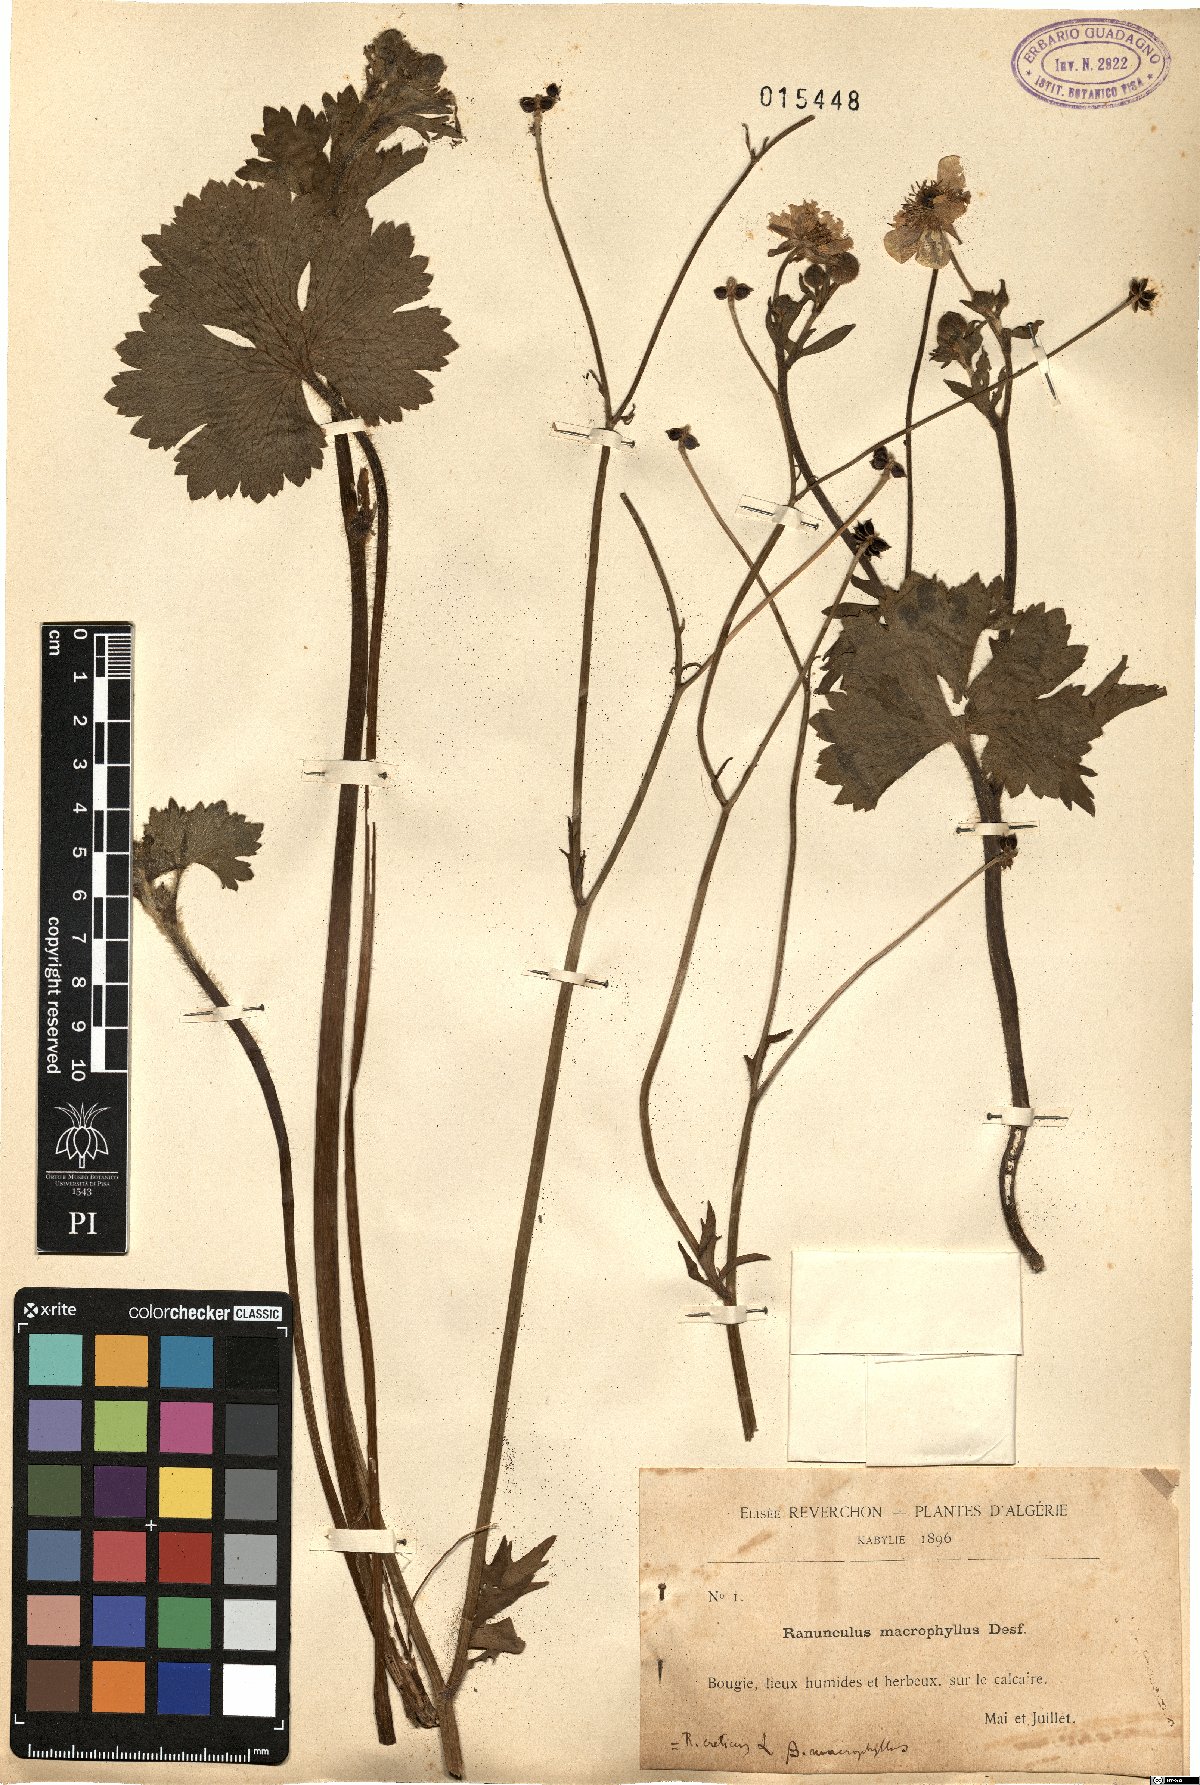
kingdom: Plantae
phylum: Tracheophyta
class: Magnoliopsida
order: Ranunculales
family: Ranunculaceae
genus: Ranunculus
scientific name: Ranunculus macrophyllus
